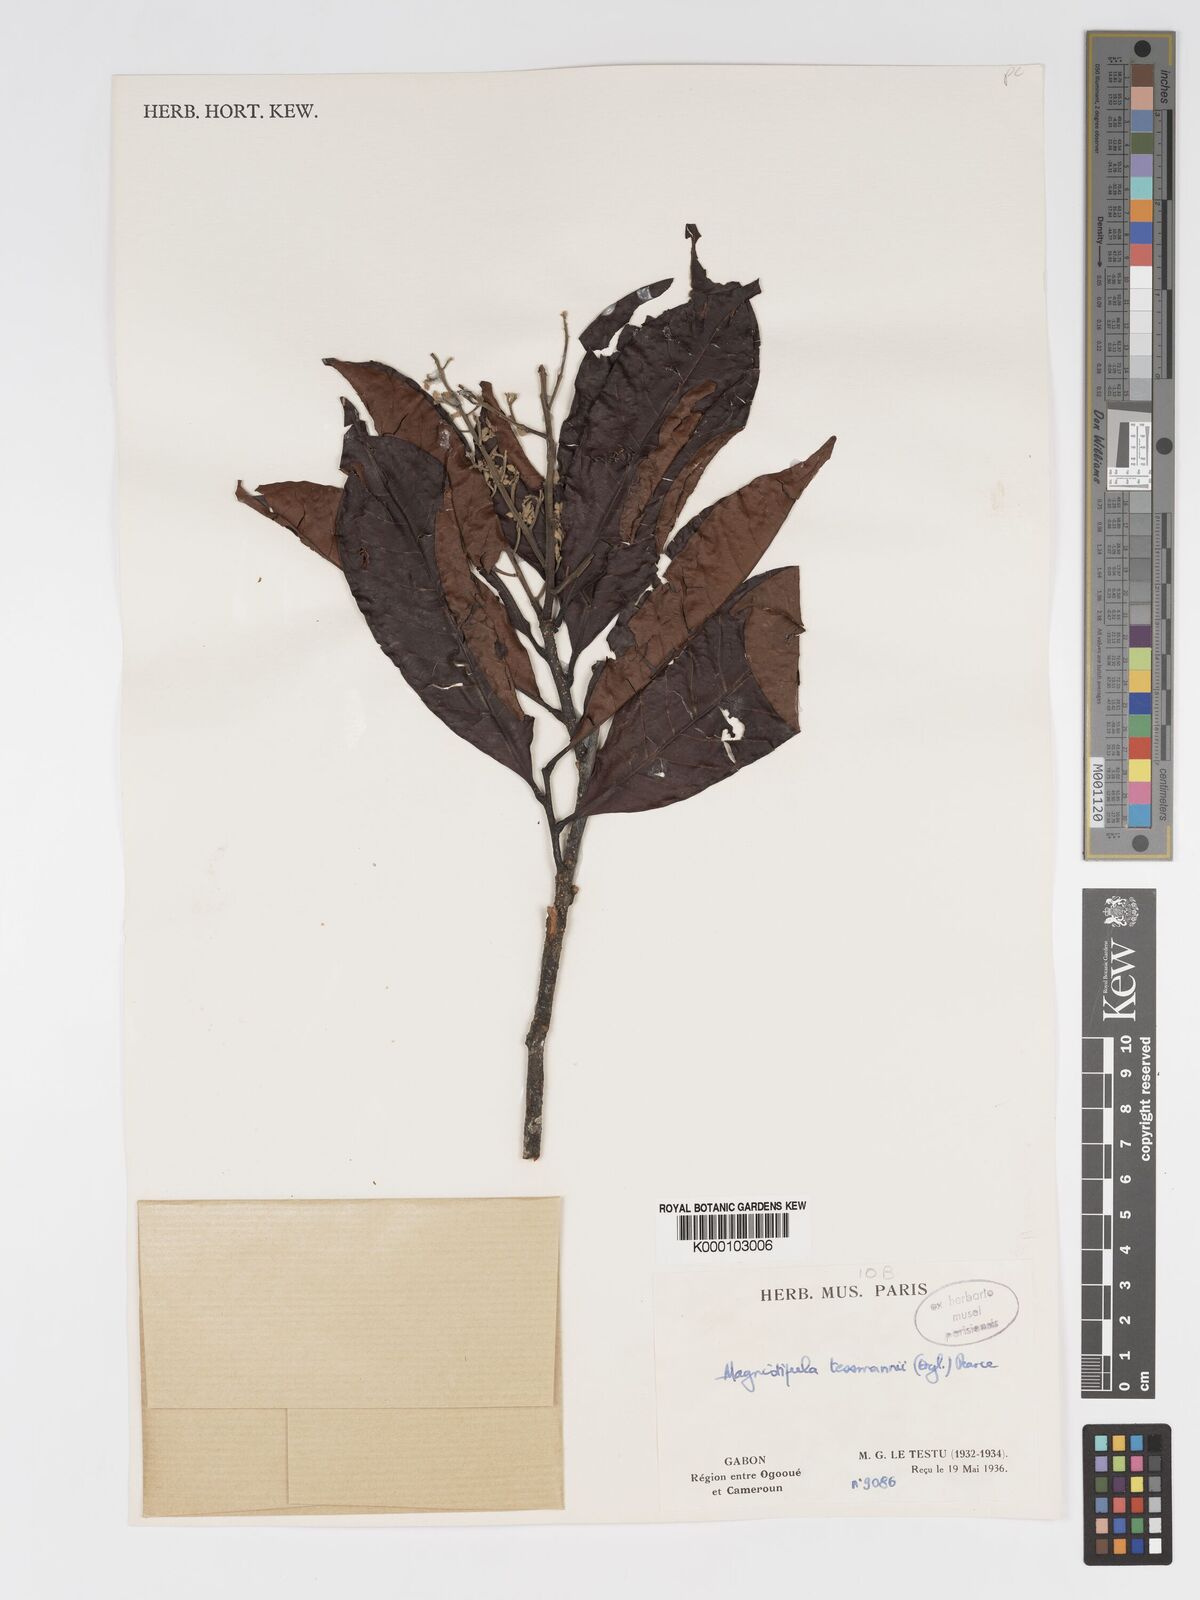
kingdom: Plantae
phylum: Tracheophyta
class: Magnoliopsida
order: Malpighiales
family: Chrysobalanaceae
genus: Magnistipula
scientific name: Magnistipula tessmannii
